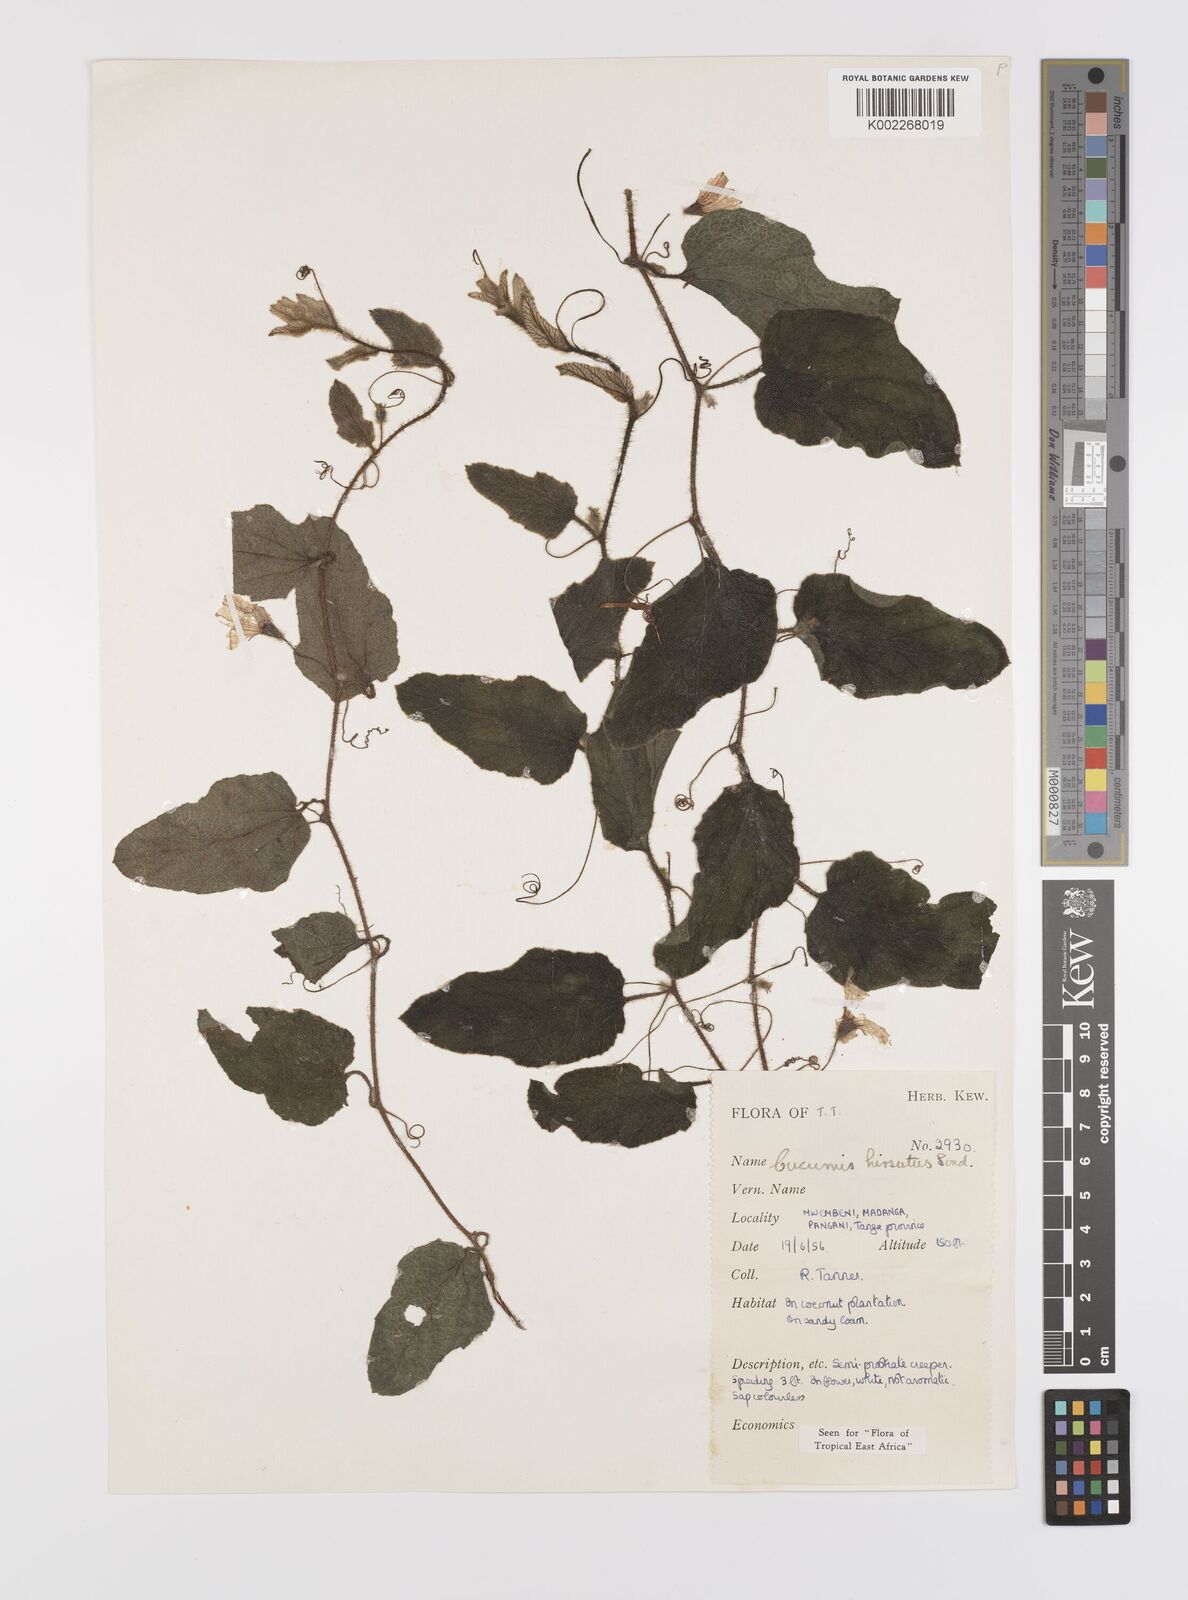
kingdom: Plantae
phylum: Tracheophyta
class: Magnoliopsida
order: Cucurbitales
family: Cucurbitaceae
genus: Cucumis
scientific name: Cucumis hirsutus
